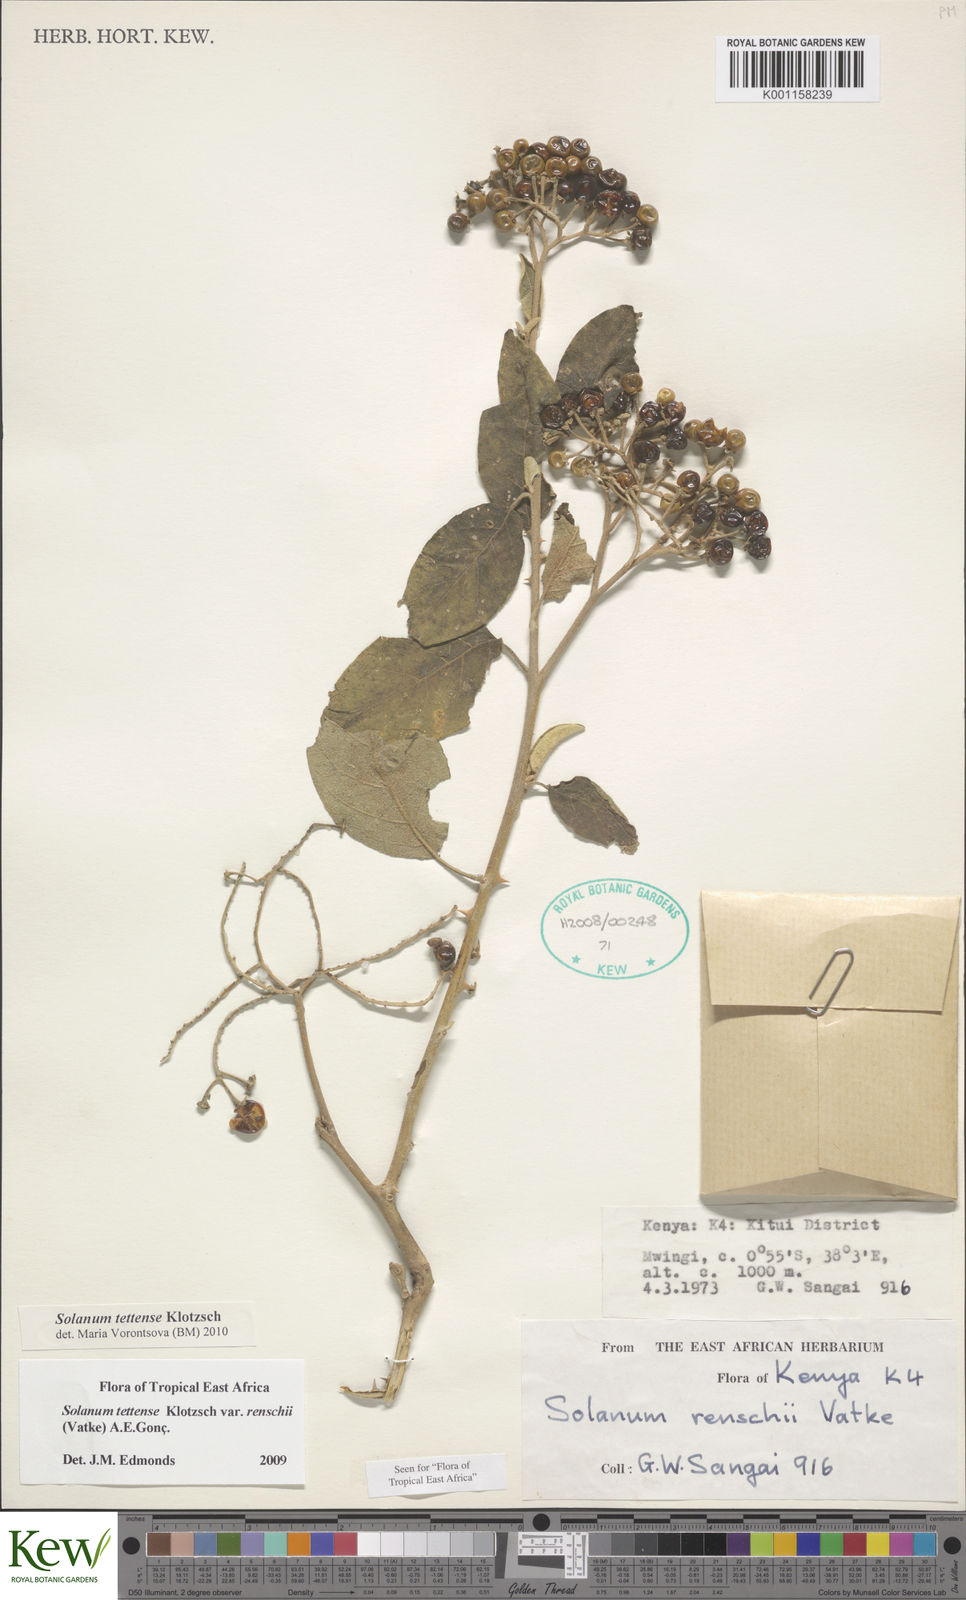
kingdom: Plantae
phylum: Tracheophyta
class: Magnoliopsida
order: Solanales
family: Solanaceae
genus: Solanum
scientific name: Solanum tettense
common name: Mozambique bitter apple
